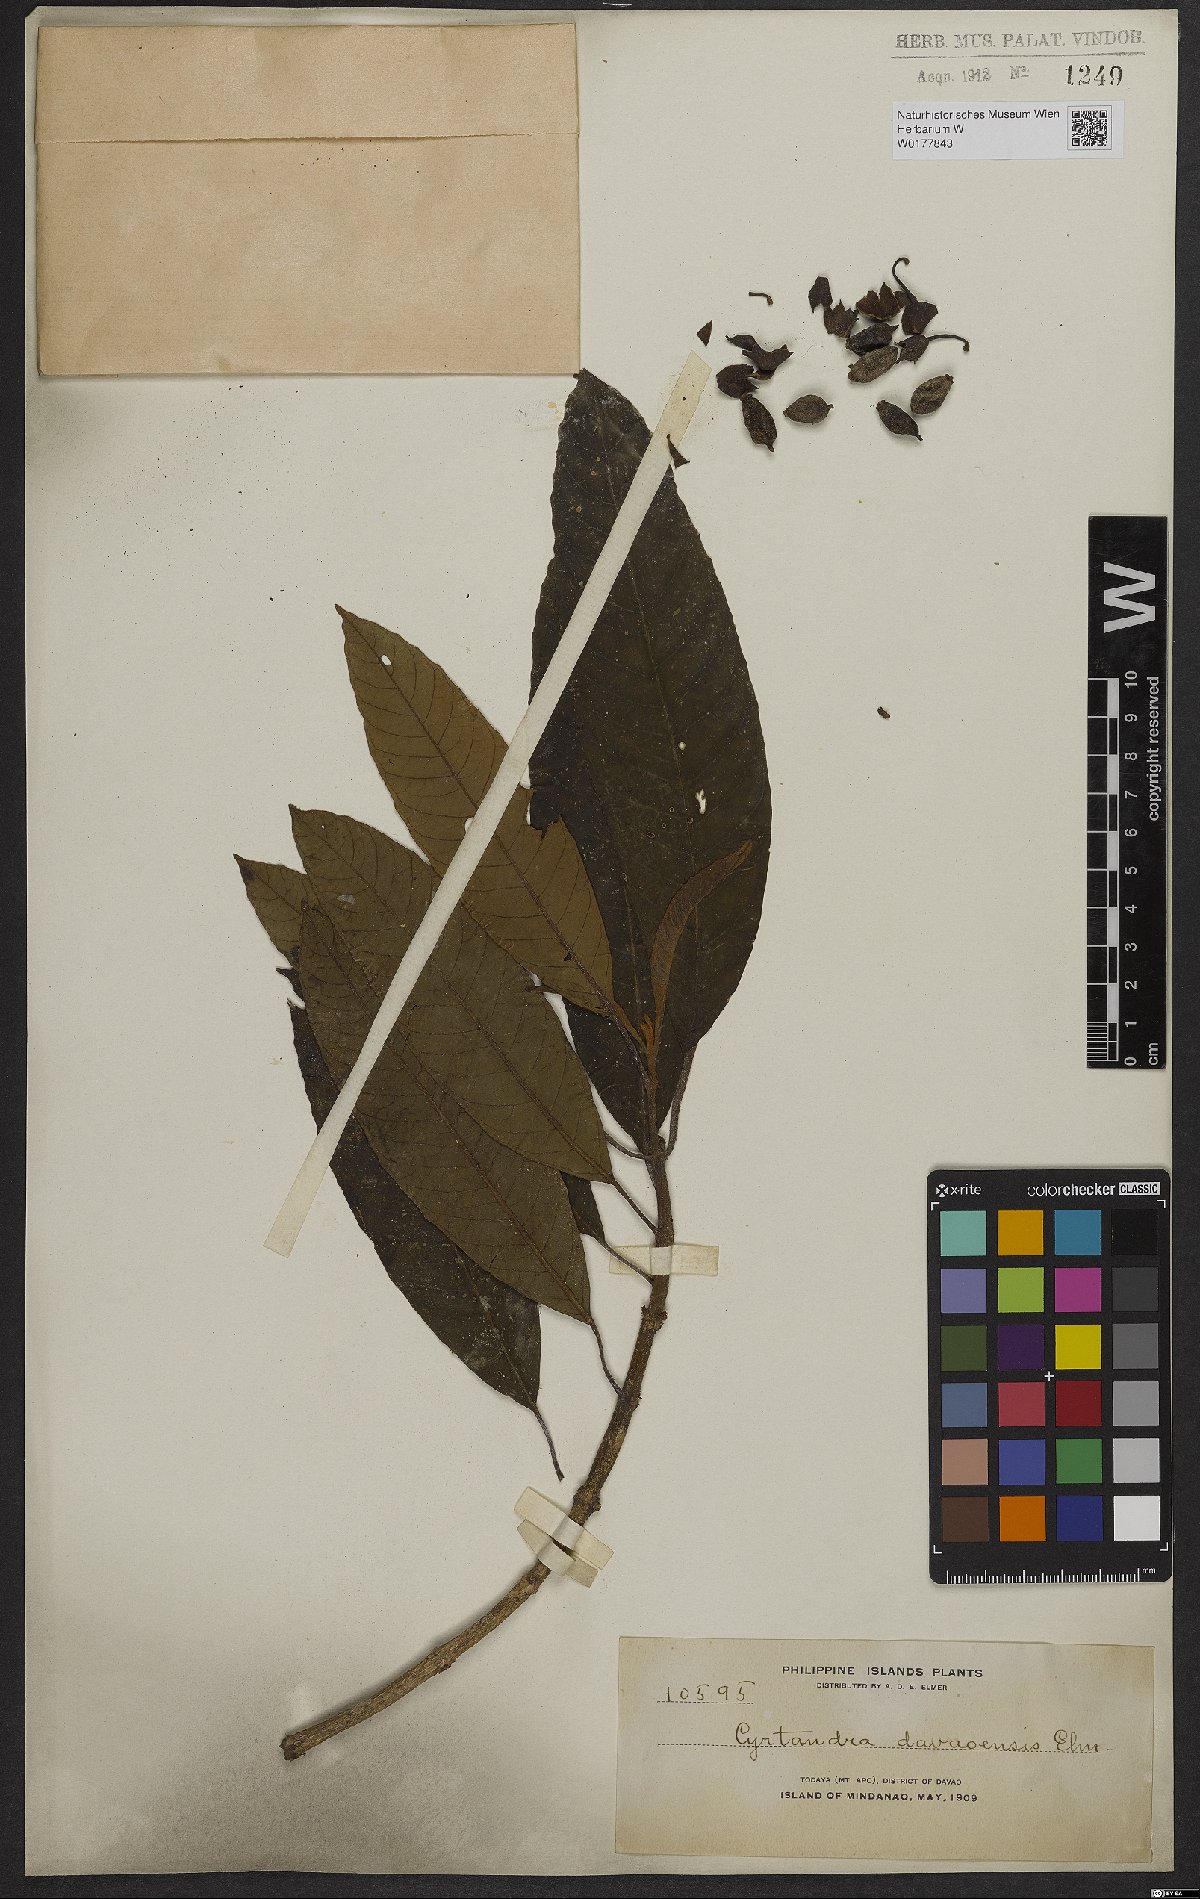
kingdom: Plantae
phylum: Tracheophyta
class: Magnoliopsida
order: Lamiales
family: Gesneriaceae
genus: Cyrtandra
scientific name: Cyrtandra davaoensis
